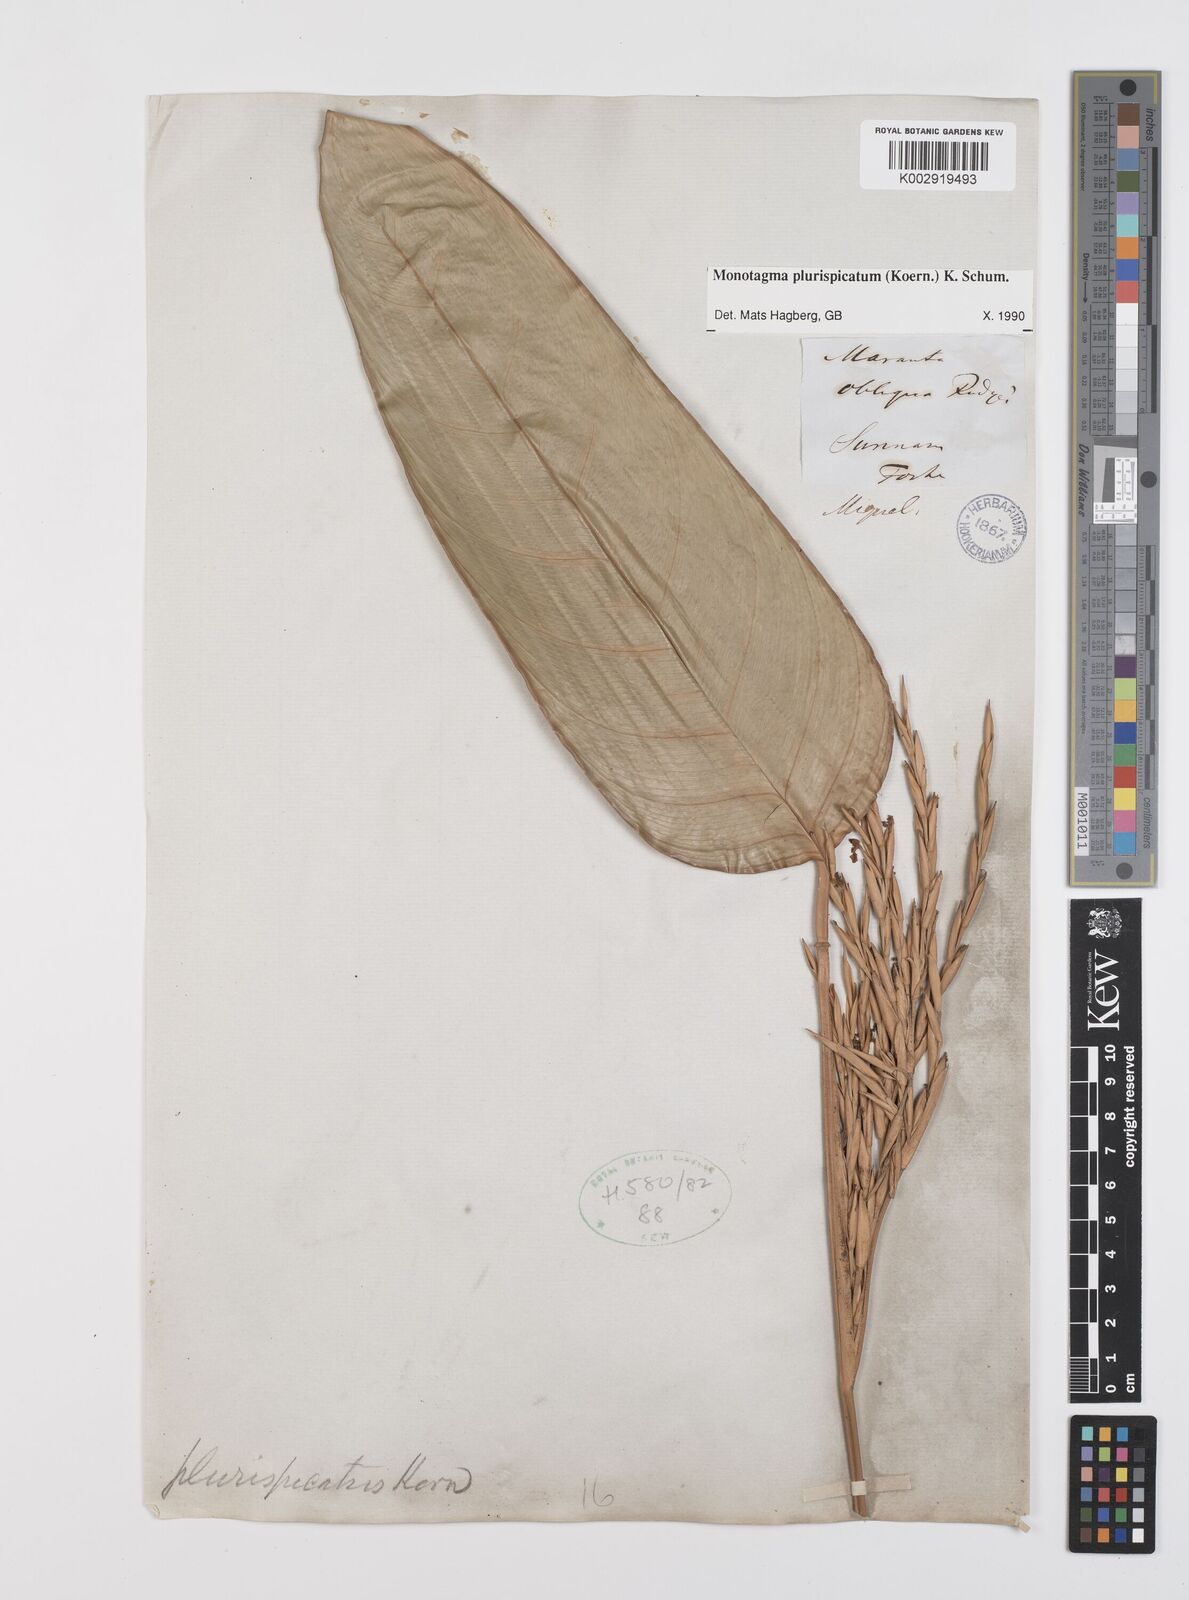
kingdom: Plantae
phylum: Tracheophyta
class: Liliopsida
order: Zingiberales
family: Marantaceae
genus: Monotagma
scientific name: Monotagma plurispicatum
